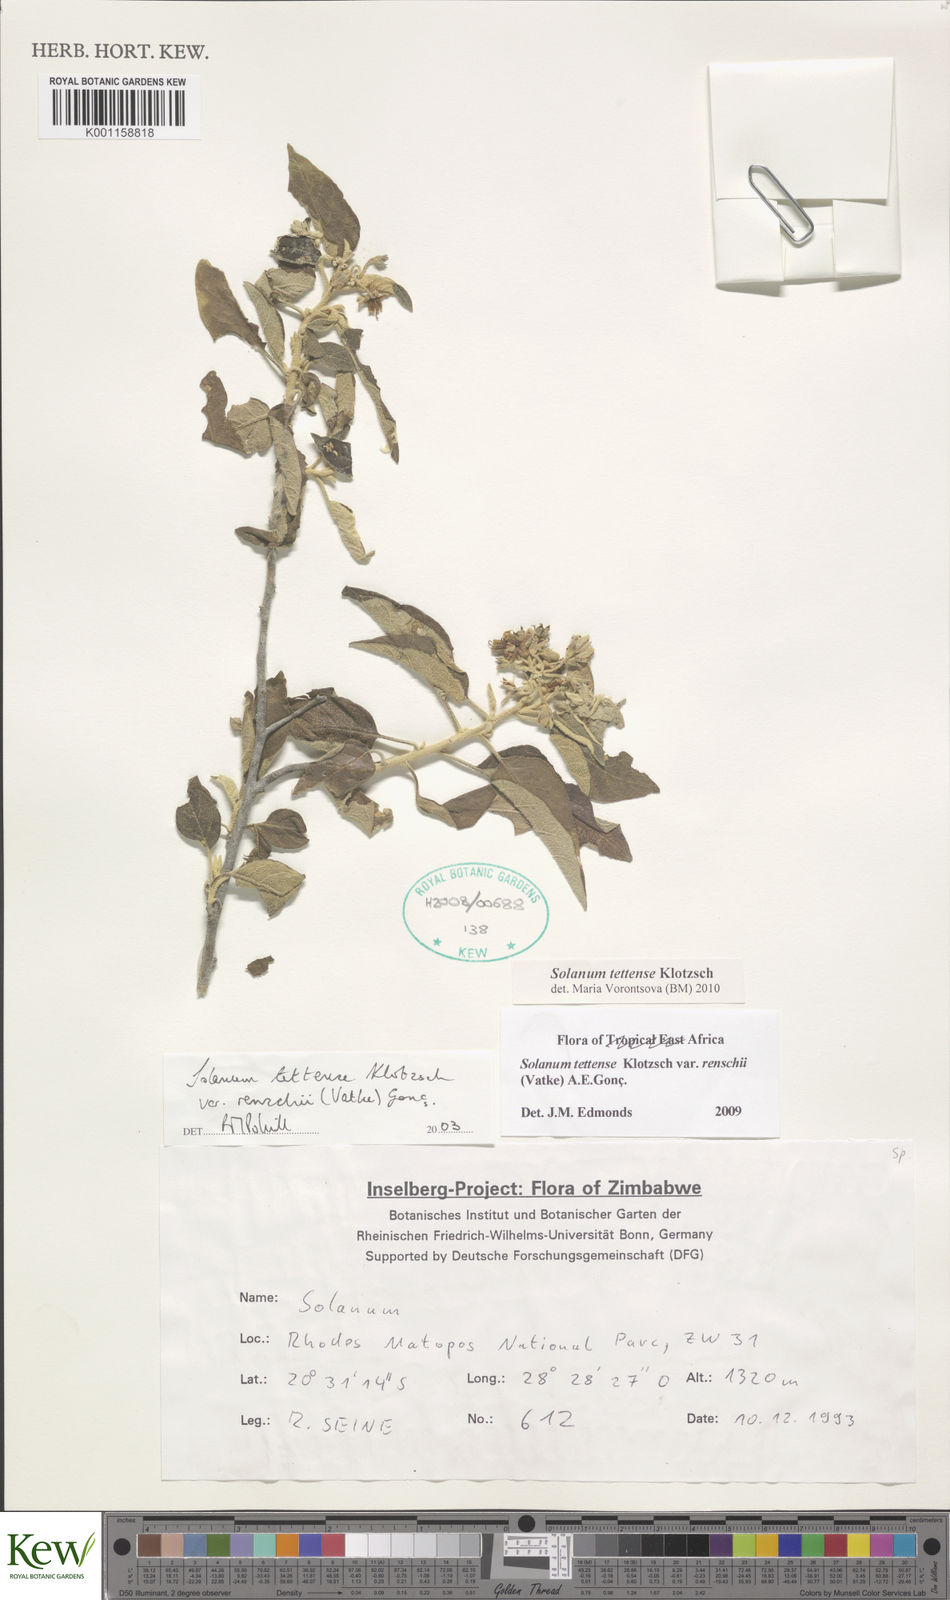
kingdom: Plantae
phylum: Tracheophyta
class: Magnoliopsida
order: Solanales
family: Solanaceae
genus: Solanum
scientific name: Solanum tettense
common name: Mozambique bitter apple
